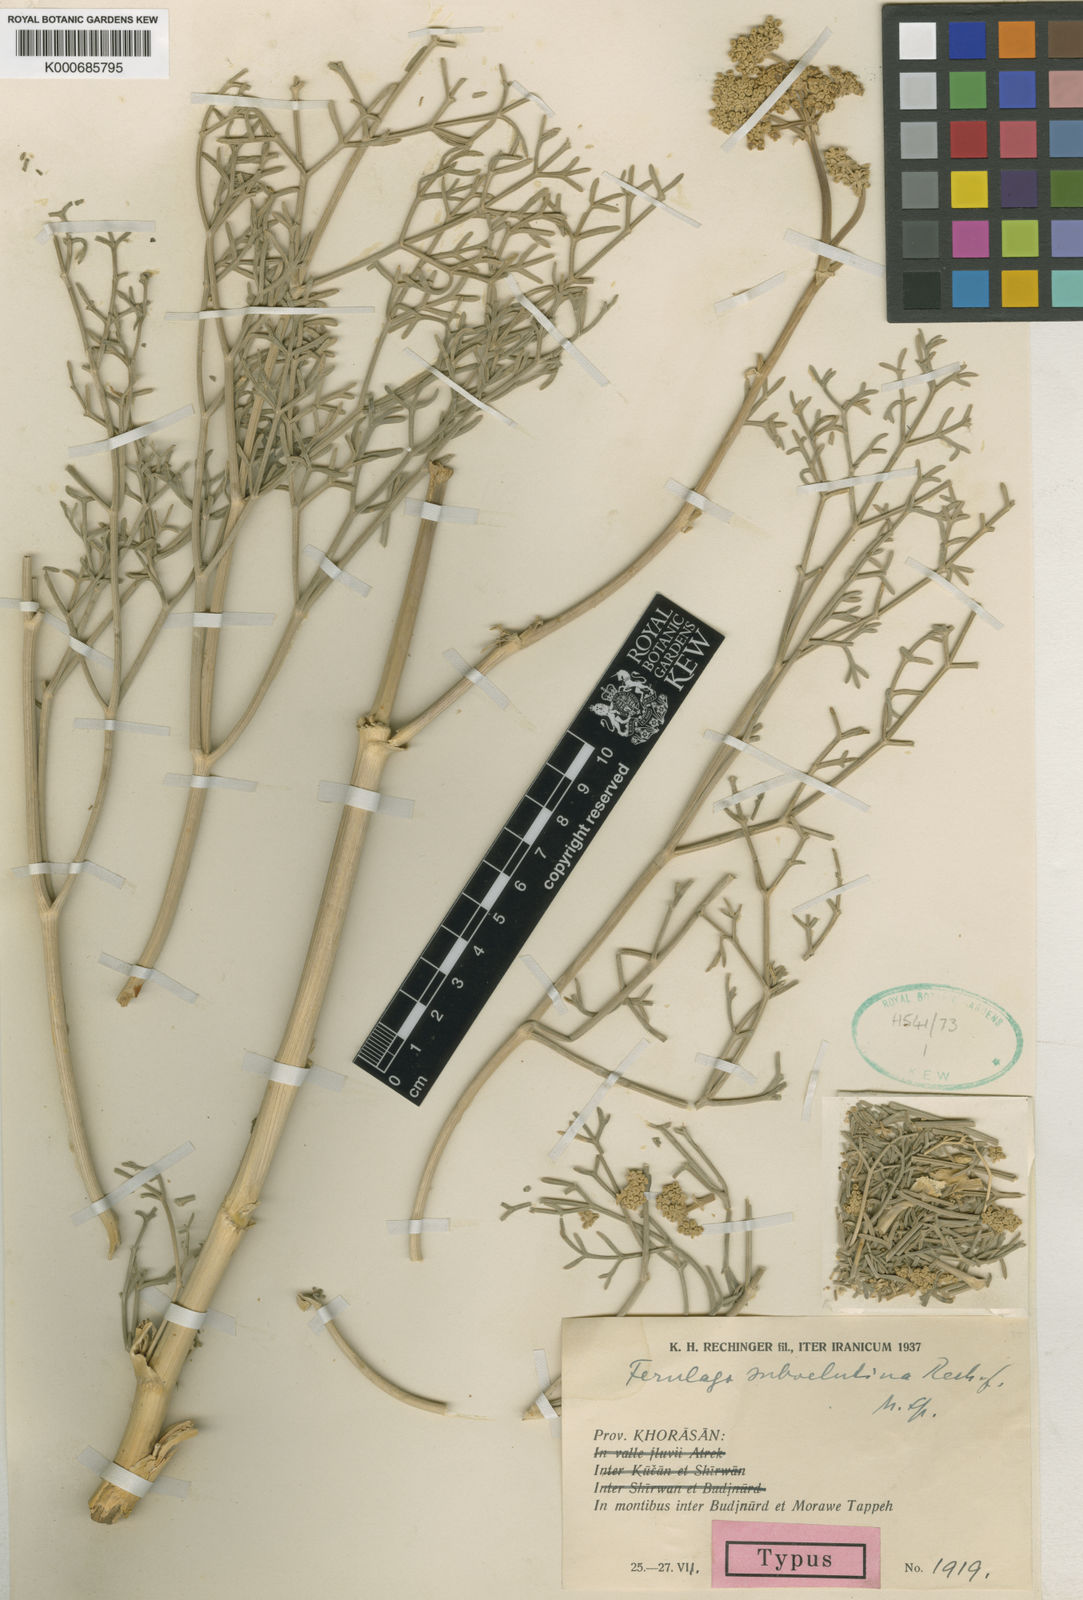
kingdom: Plantae
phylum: Tracheophyta
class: Magnoliopsida
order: Apiales
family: Apiaceae
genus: Ferulago
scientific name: Ferulago subvelutina
